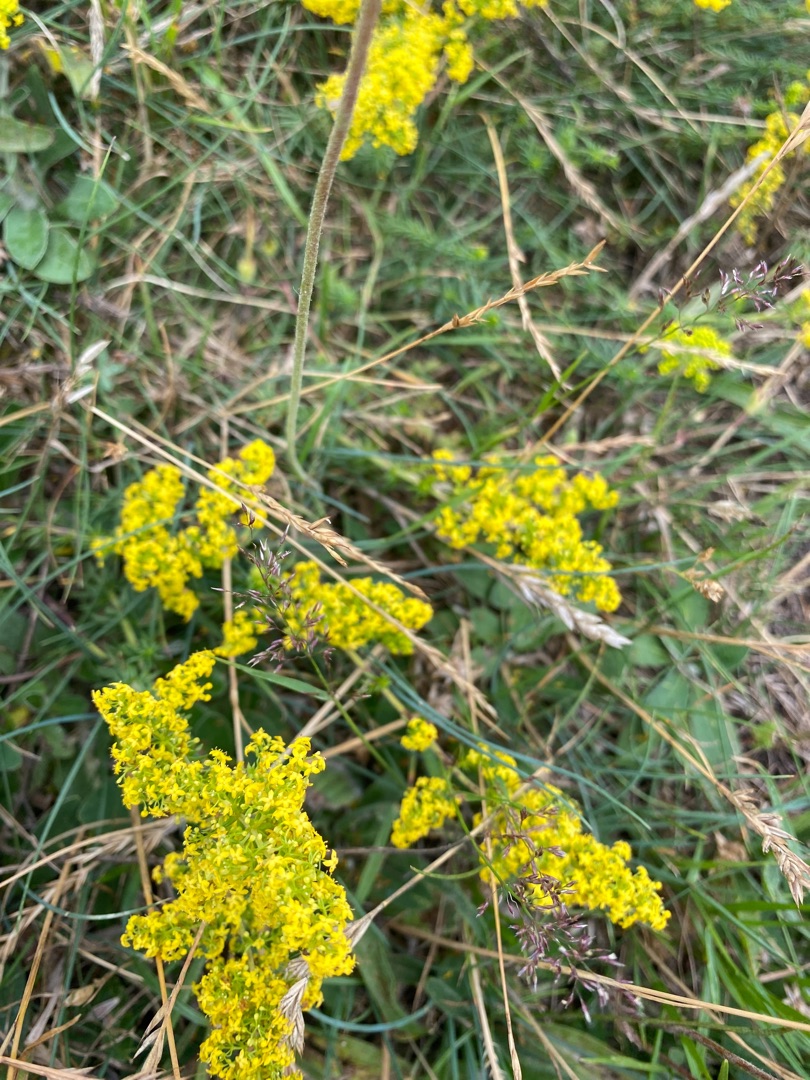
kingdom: Plantae
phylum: Tracheophyta
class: Magnoliopsida
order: Gentianales
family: Rubiaceae
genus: Galium
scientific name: Galium verum
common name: Gul snerre
